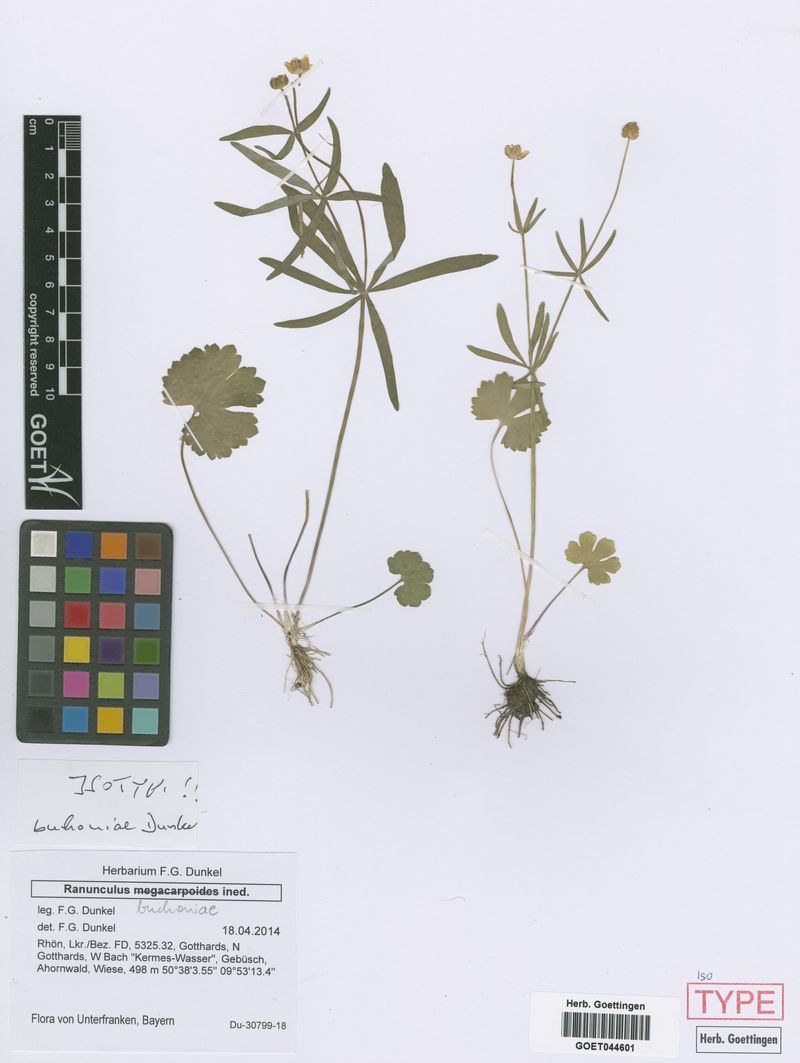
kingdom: Plantae
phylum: Tracheophyta
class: Magnoliopsida
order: Ranunculales
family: Ranunculaceae
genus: Ranunculus
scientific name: Ranunculus buchoniae
